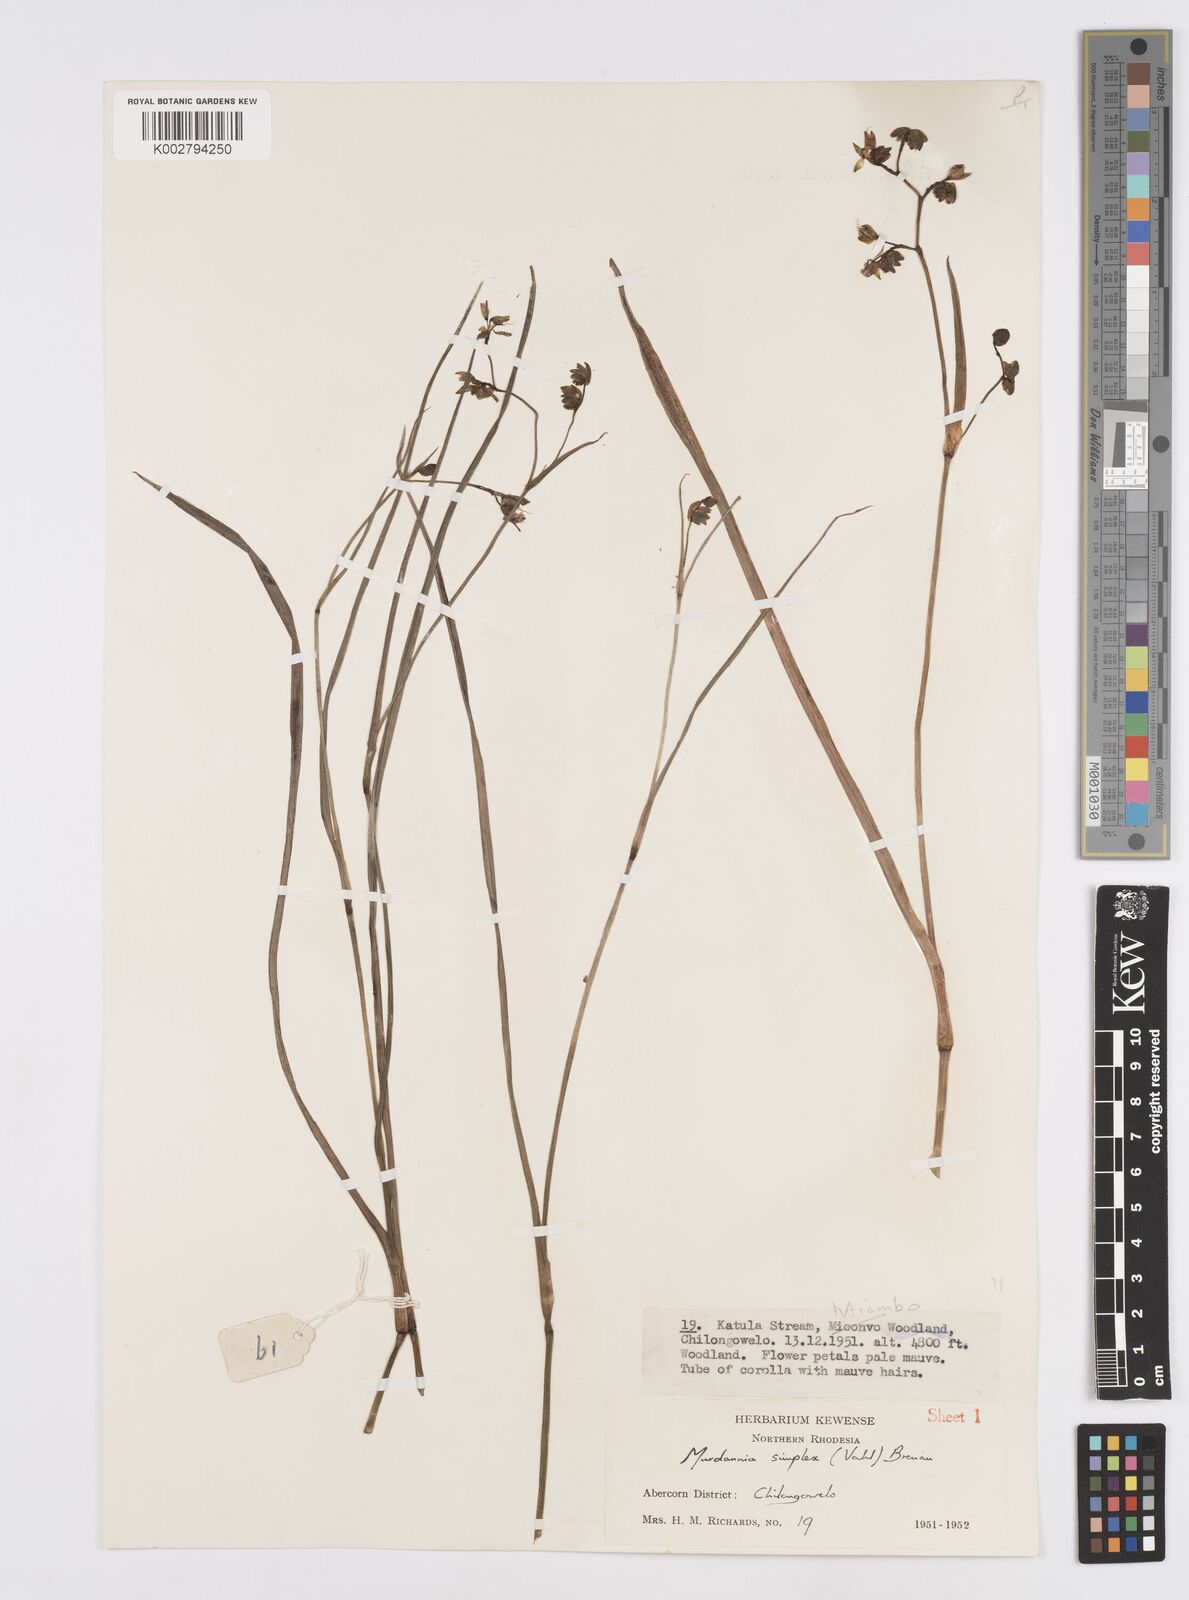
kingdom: Plantae
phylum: Tracheophyta
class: Liliopsida
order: Commelinales
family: Commelinaceae
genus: Murdannia
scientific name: Murdannia simplex
